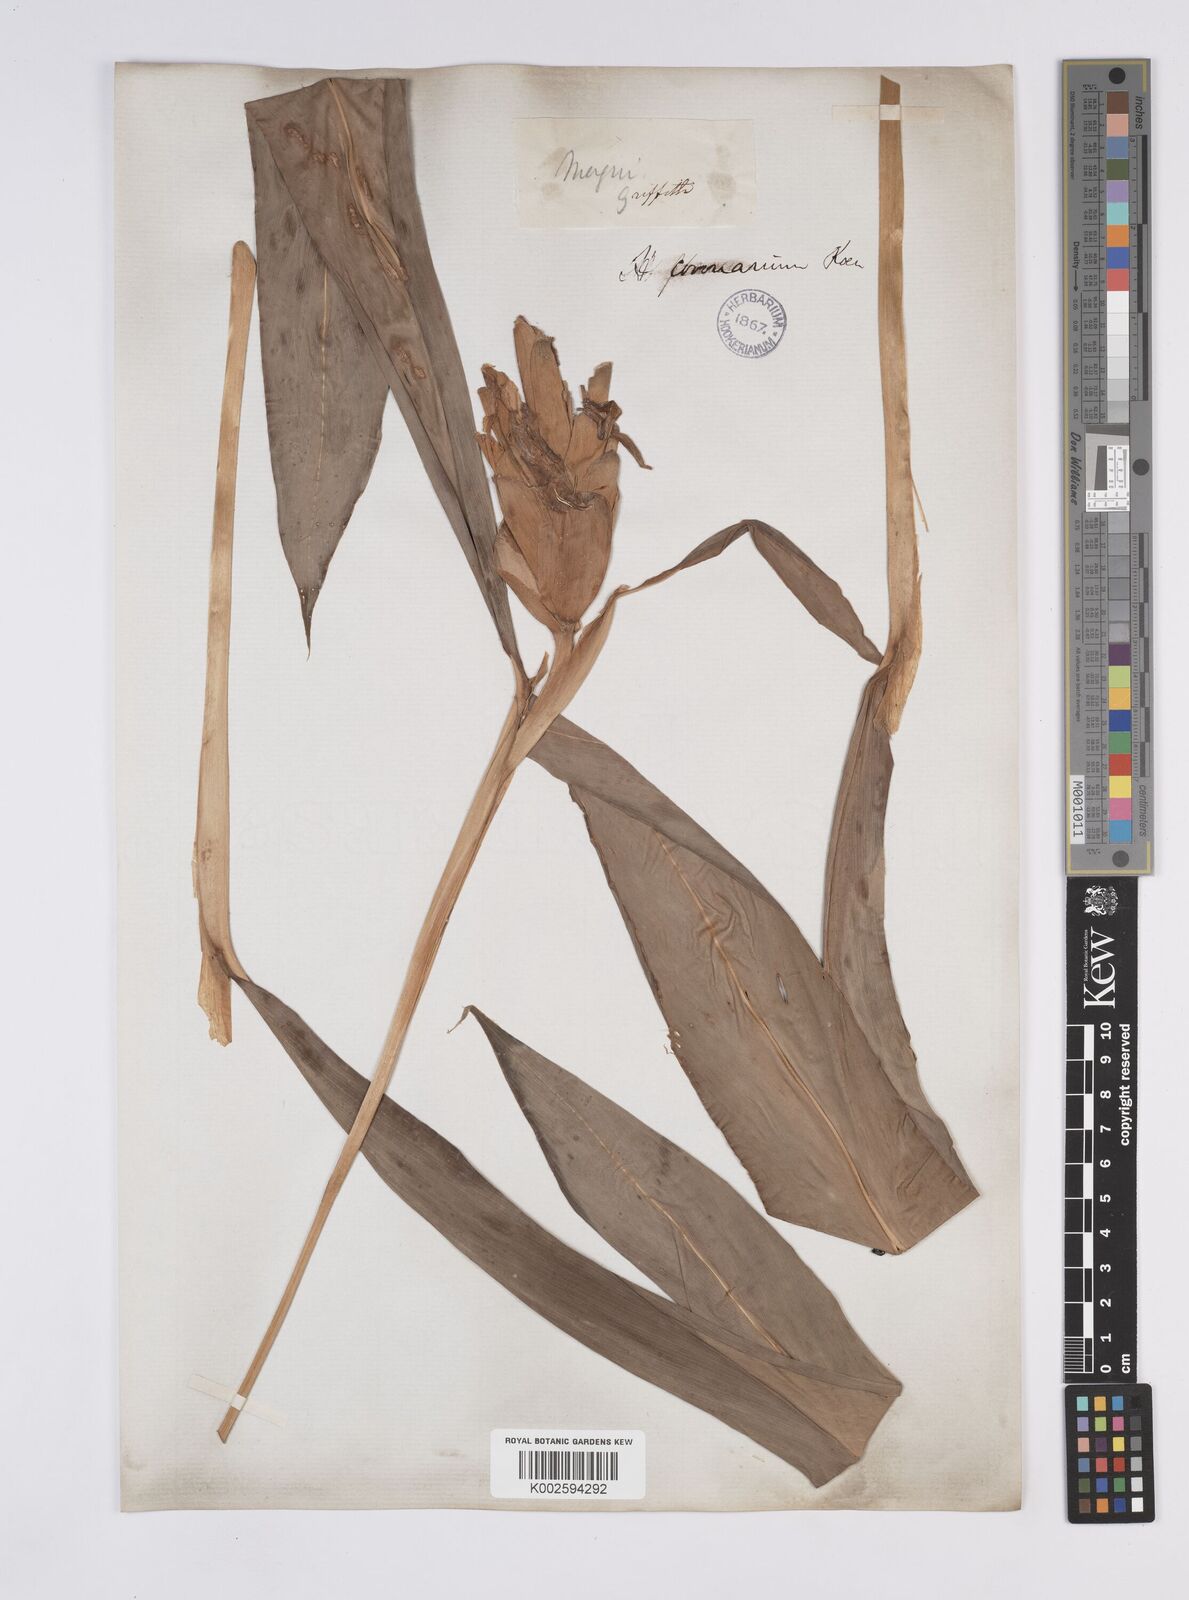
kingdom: Plantae
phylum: Tracheophyta
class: Liliopsida
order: Zingiberales
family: Zingiberaceae
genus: Hedychium
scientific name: Hedychium coronarium
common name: White garland-lily
